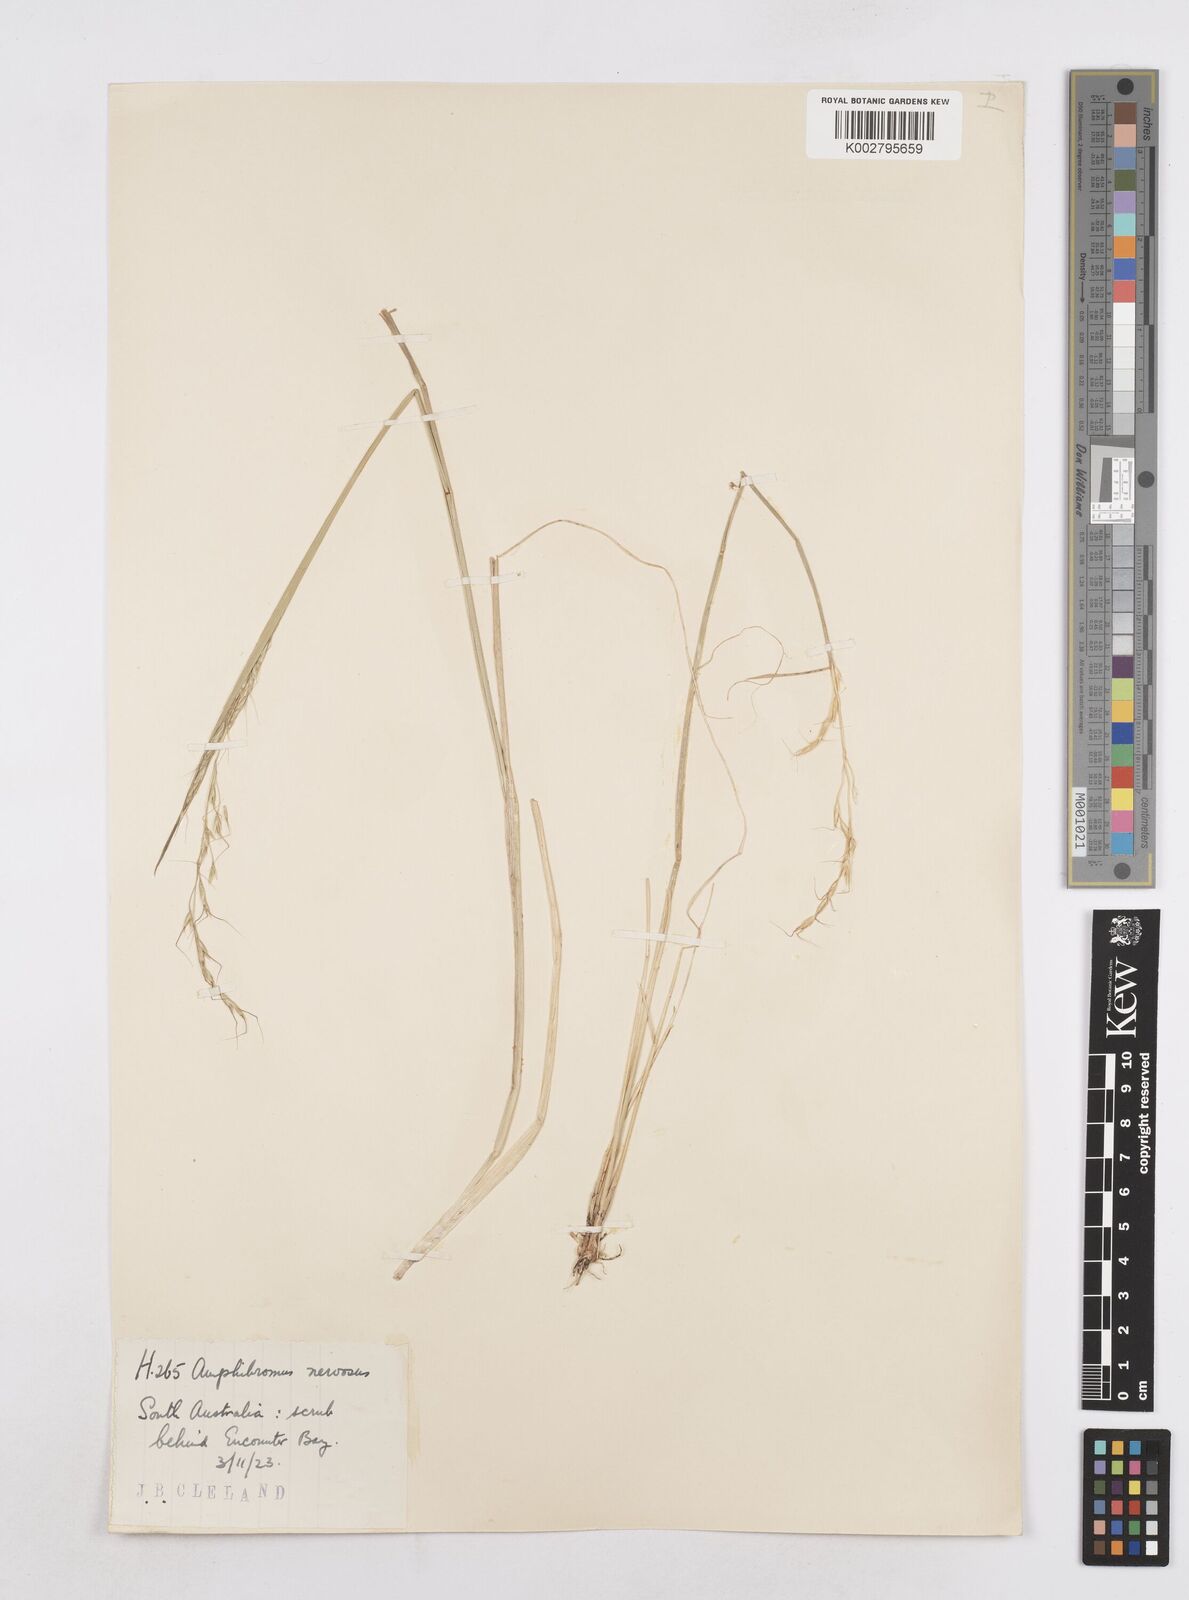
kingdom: Plantae
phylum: Tracheophyta
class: Liliopsida
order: Poales
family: Poaceae
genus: Amphibromus
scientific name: Amphibromus neesii
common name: Australian wallaby grass
